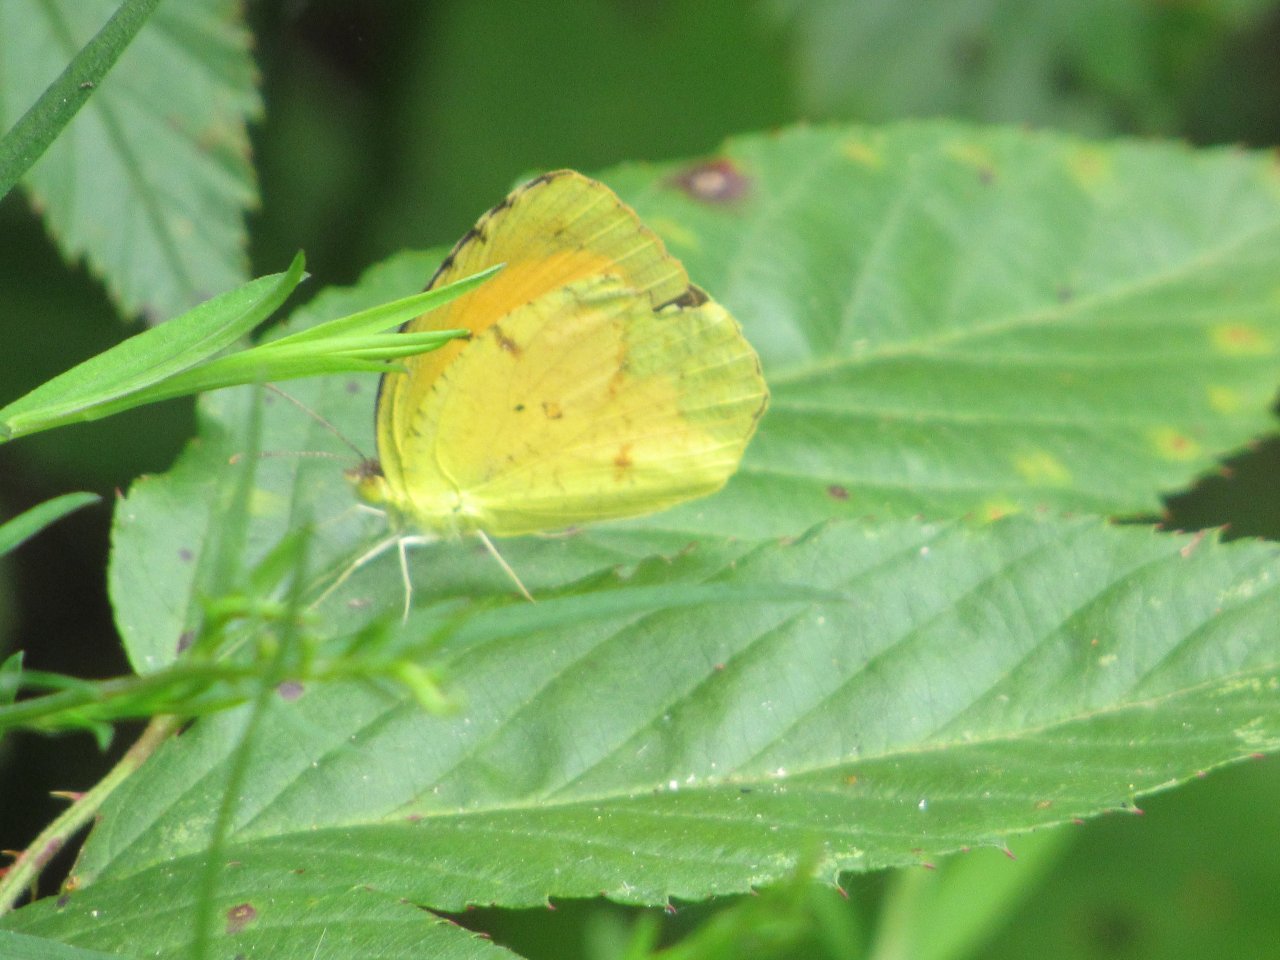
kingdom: Animalia
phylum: Arthropoda
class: Insecta
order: Lepidoptera
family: Pieridae
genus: Abaeis
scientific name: Abaeis nicippe
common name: Sleepy Orange
